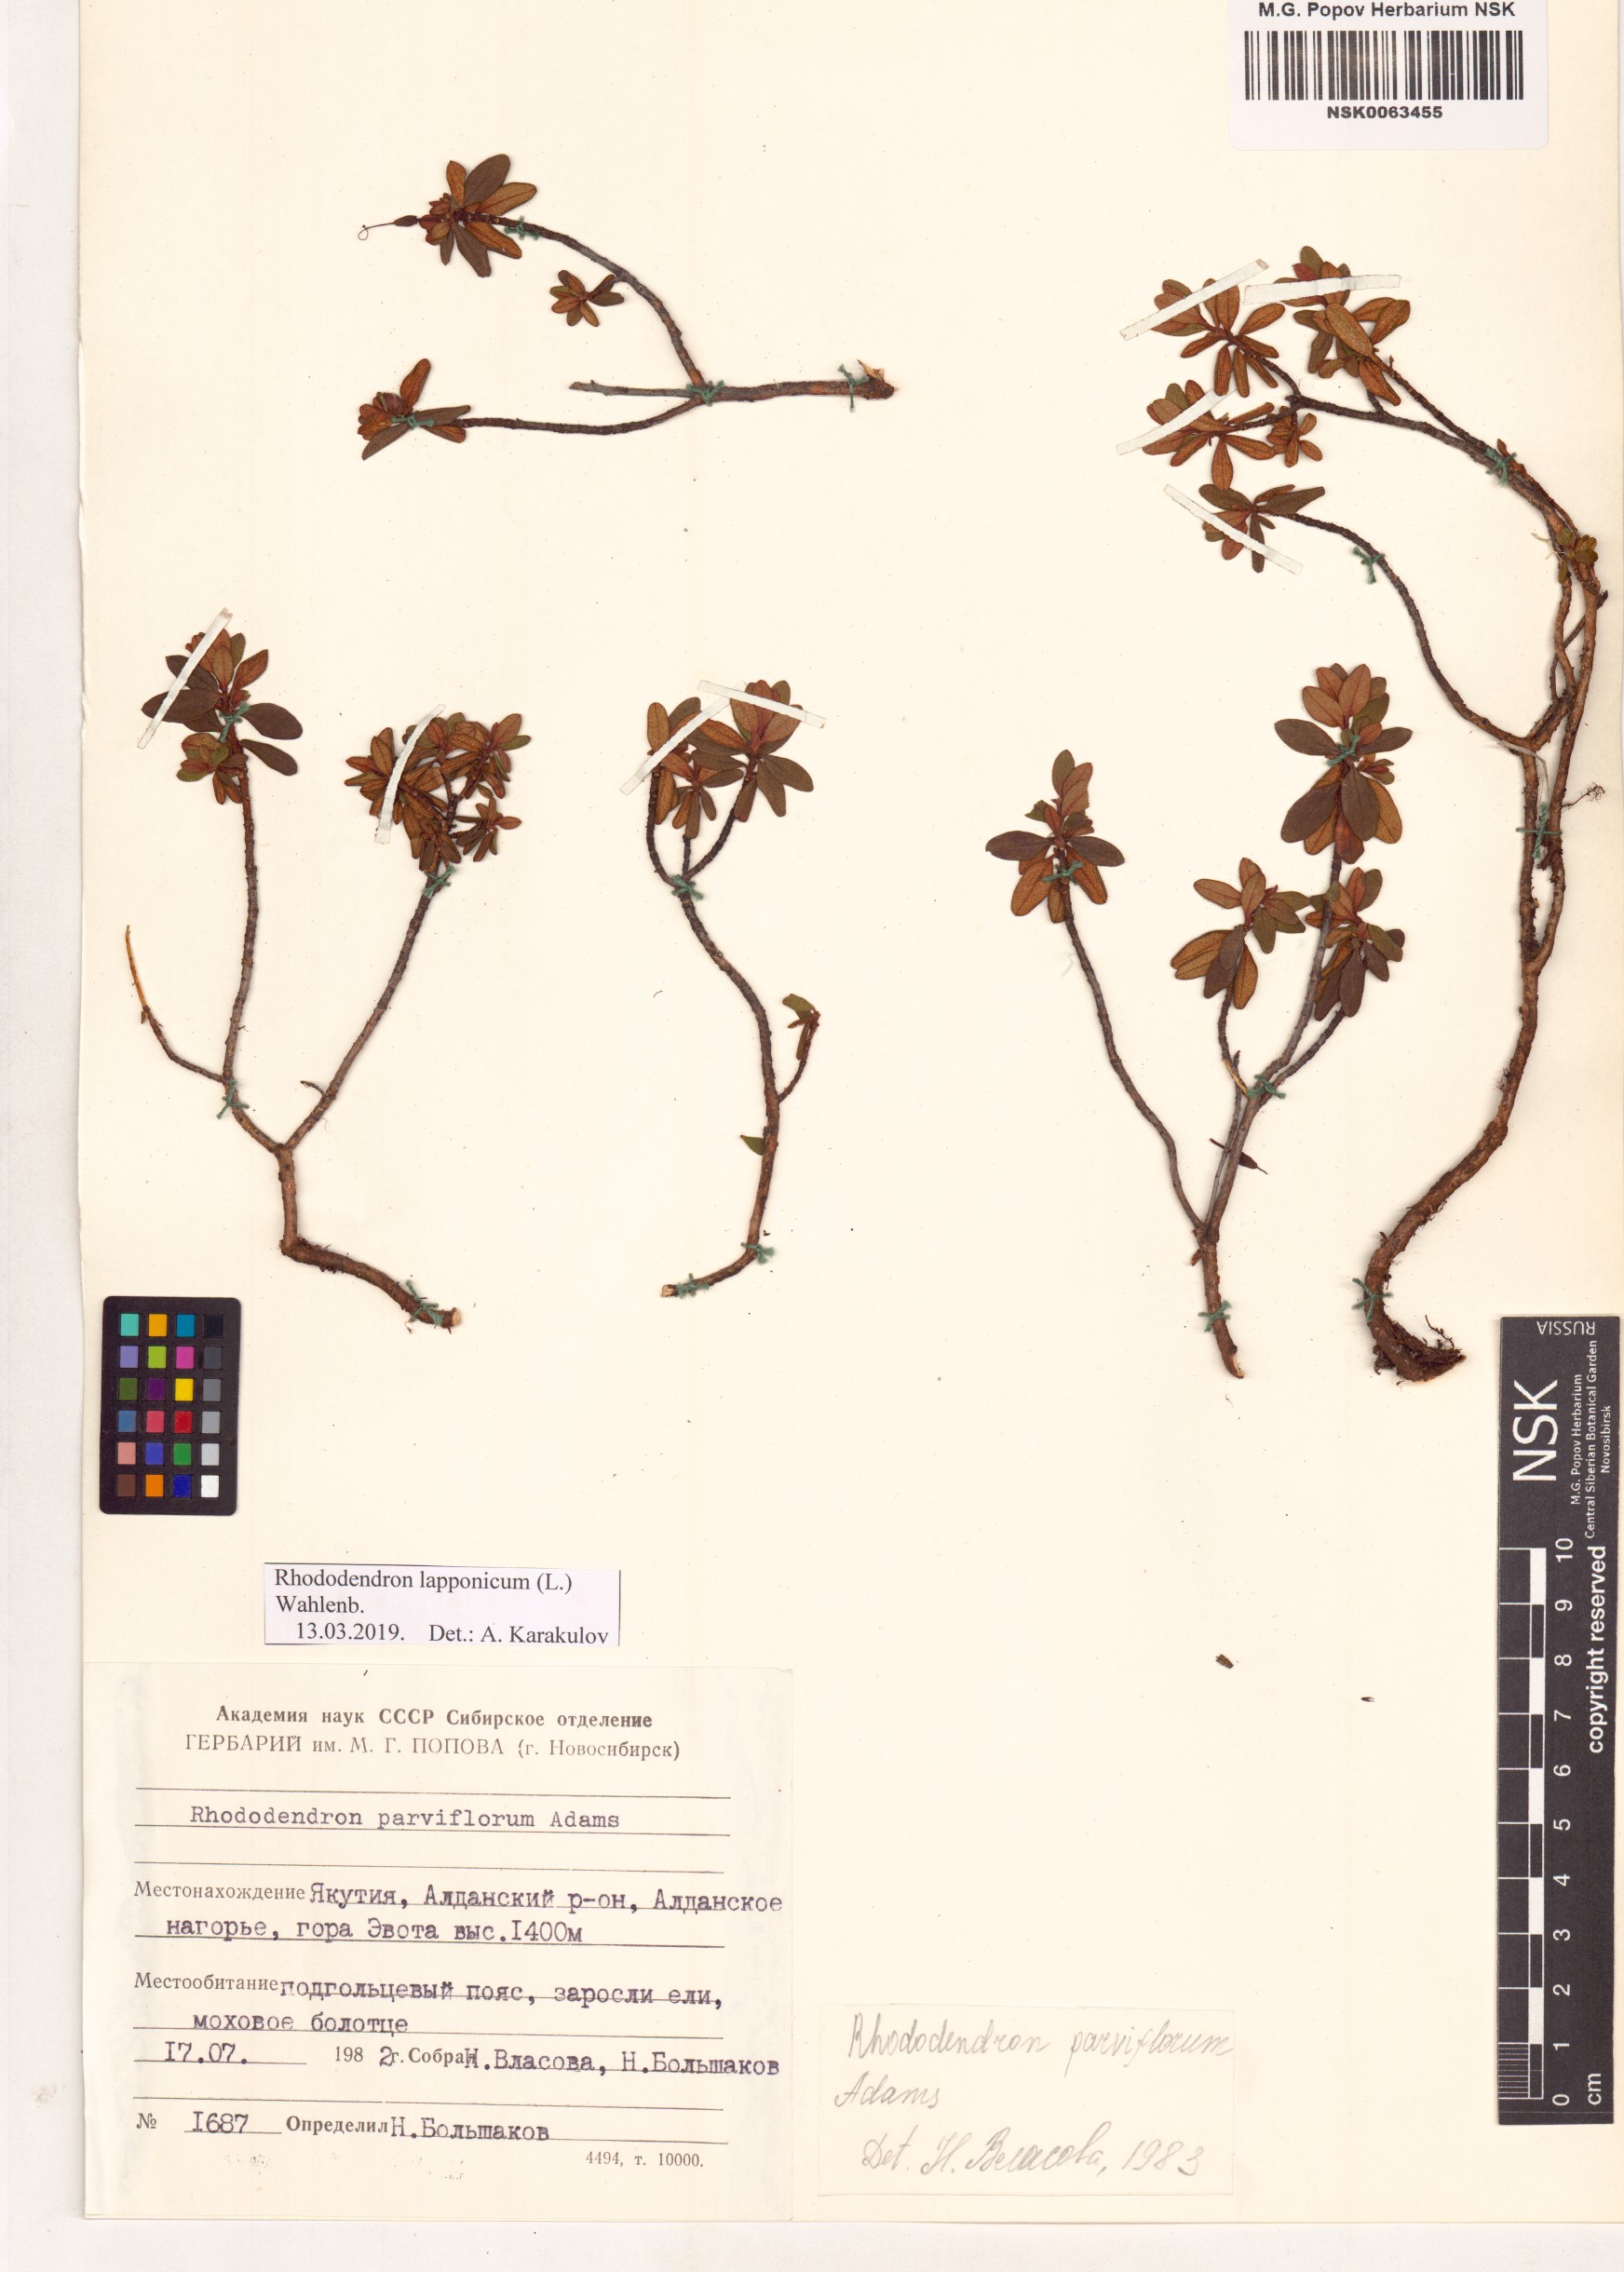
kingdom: Plantae
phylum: Tracheophyta
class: Magnoliopsida
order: Ericales
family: Ericaceae
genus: Rhododendron
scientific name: Rhododendron lapponicum
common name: Lapland rhododendron
